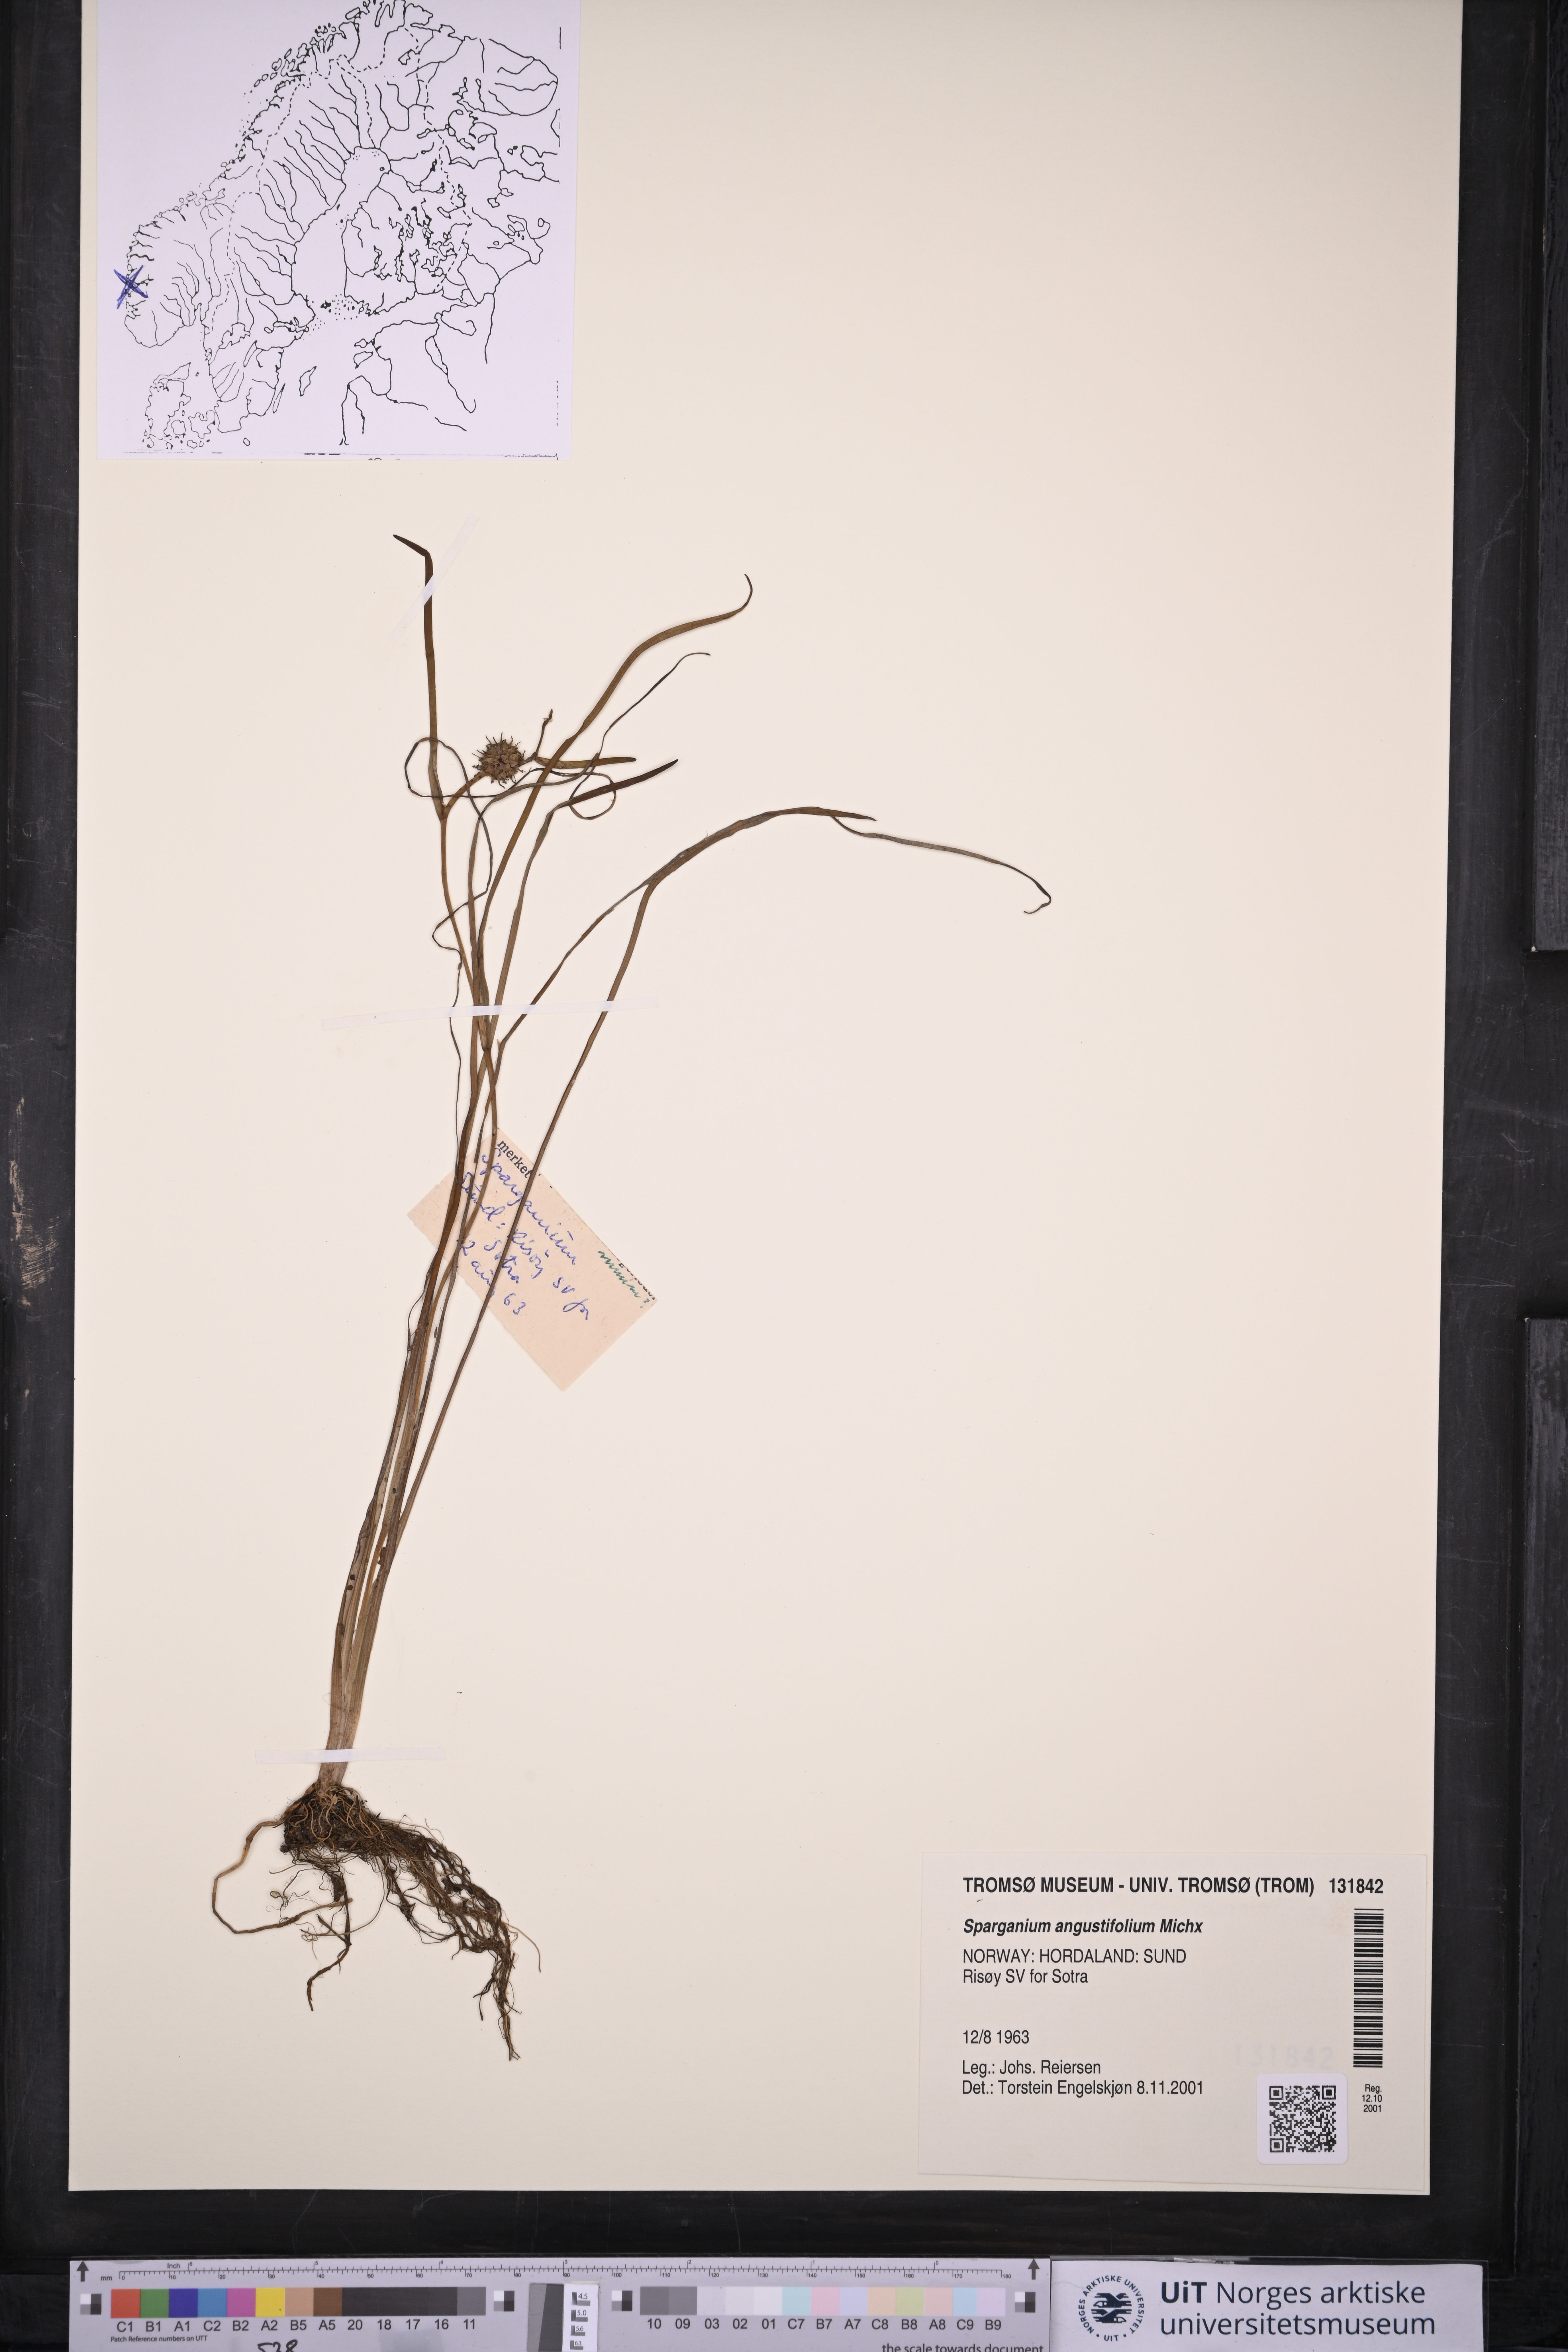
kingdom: Plantae
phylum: Tracheophyta
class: Liliopsida
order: Poales
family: Typhaceae
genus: Sparganium
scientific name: Sparganium angustifolium
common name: Floating bur-reed
